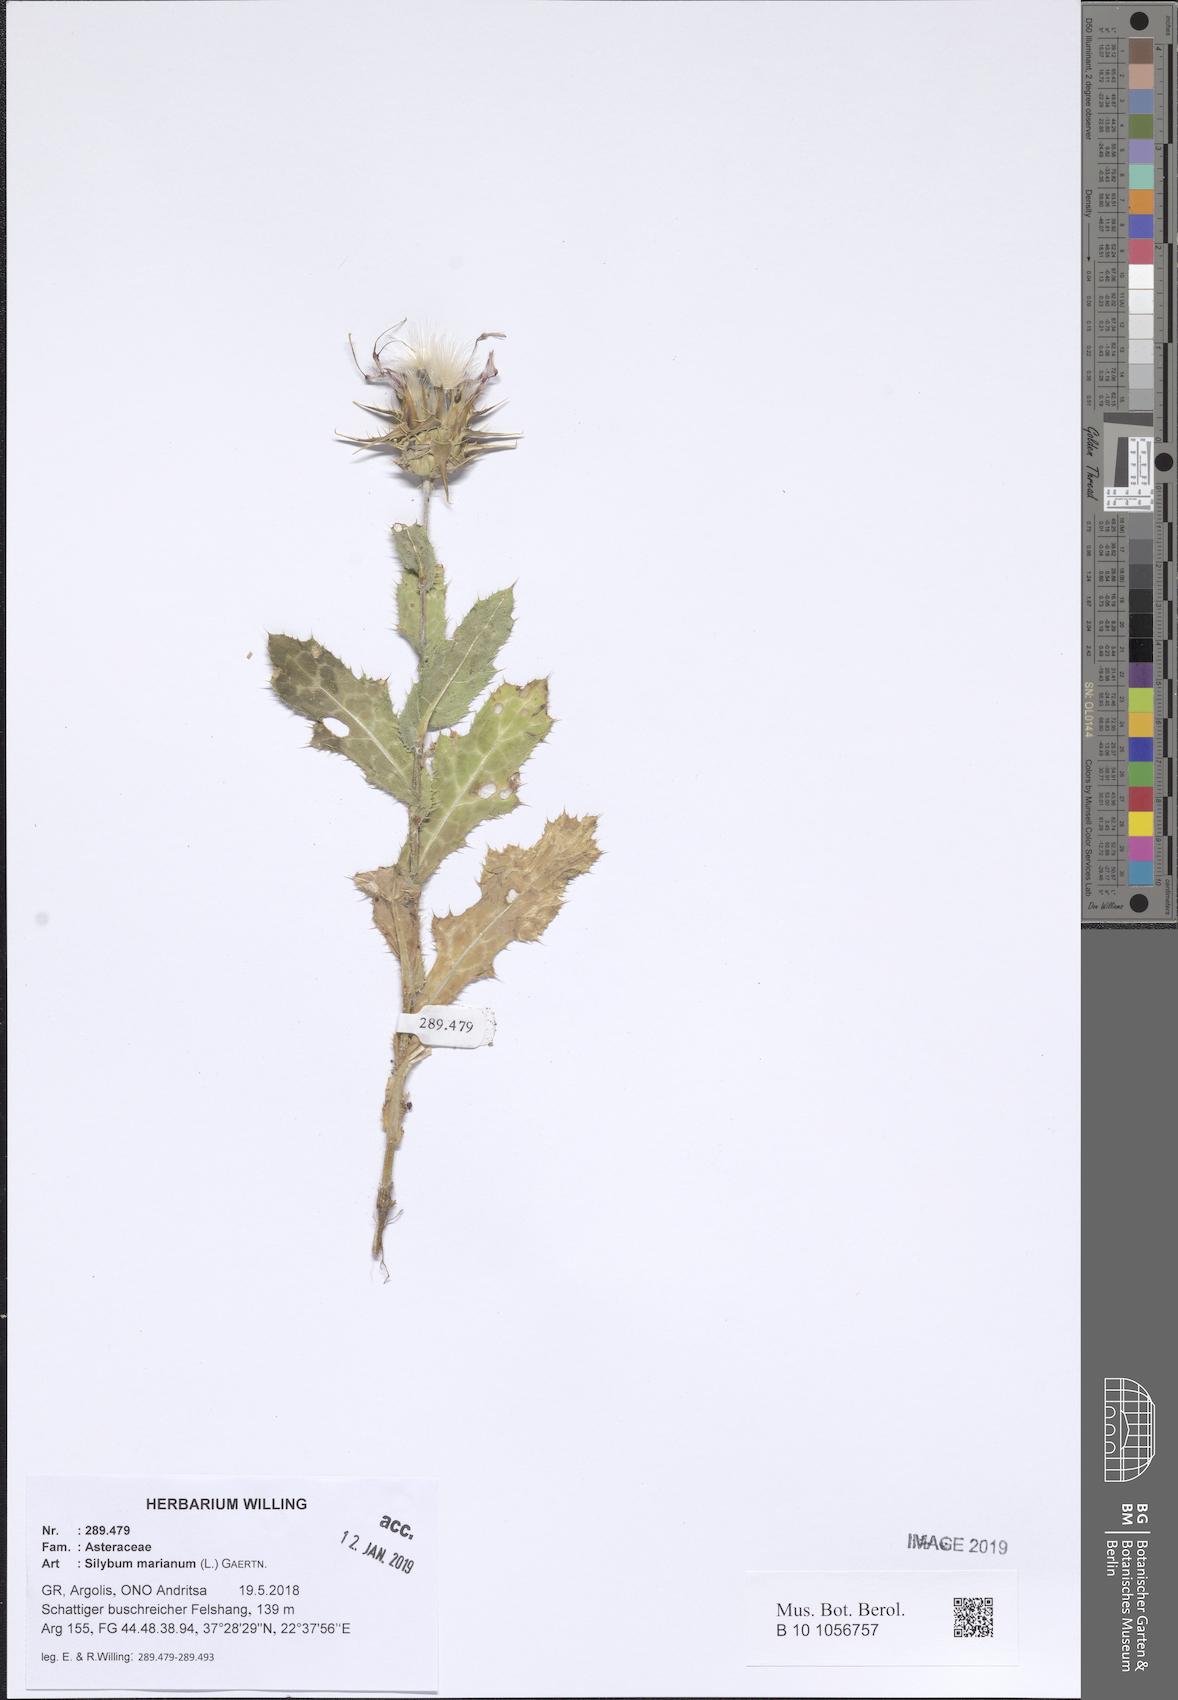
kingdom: Plantae
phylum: Tracheophyta
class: Magnoliopsida
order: Asterales
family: Asteraceae
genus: Silybum
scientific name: Silybum marianum
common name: Milk thistle
